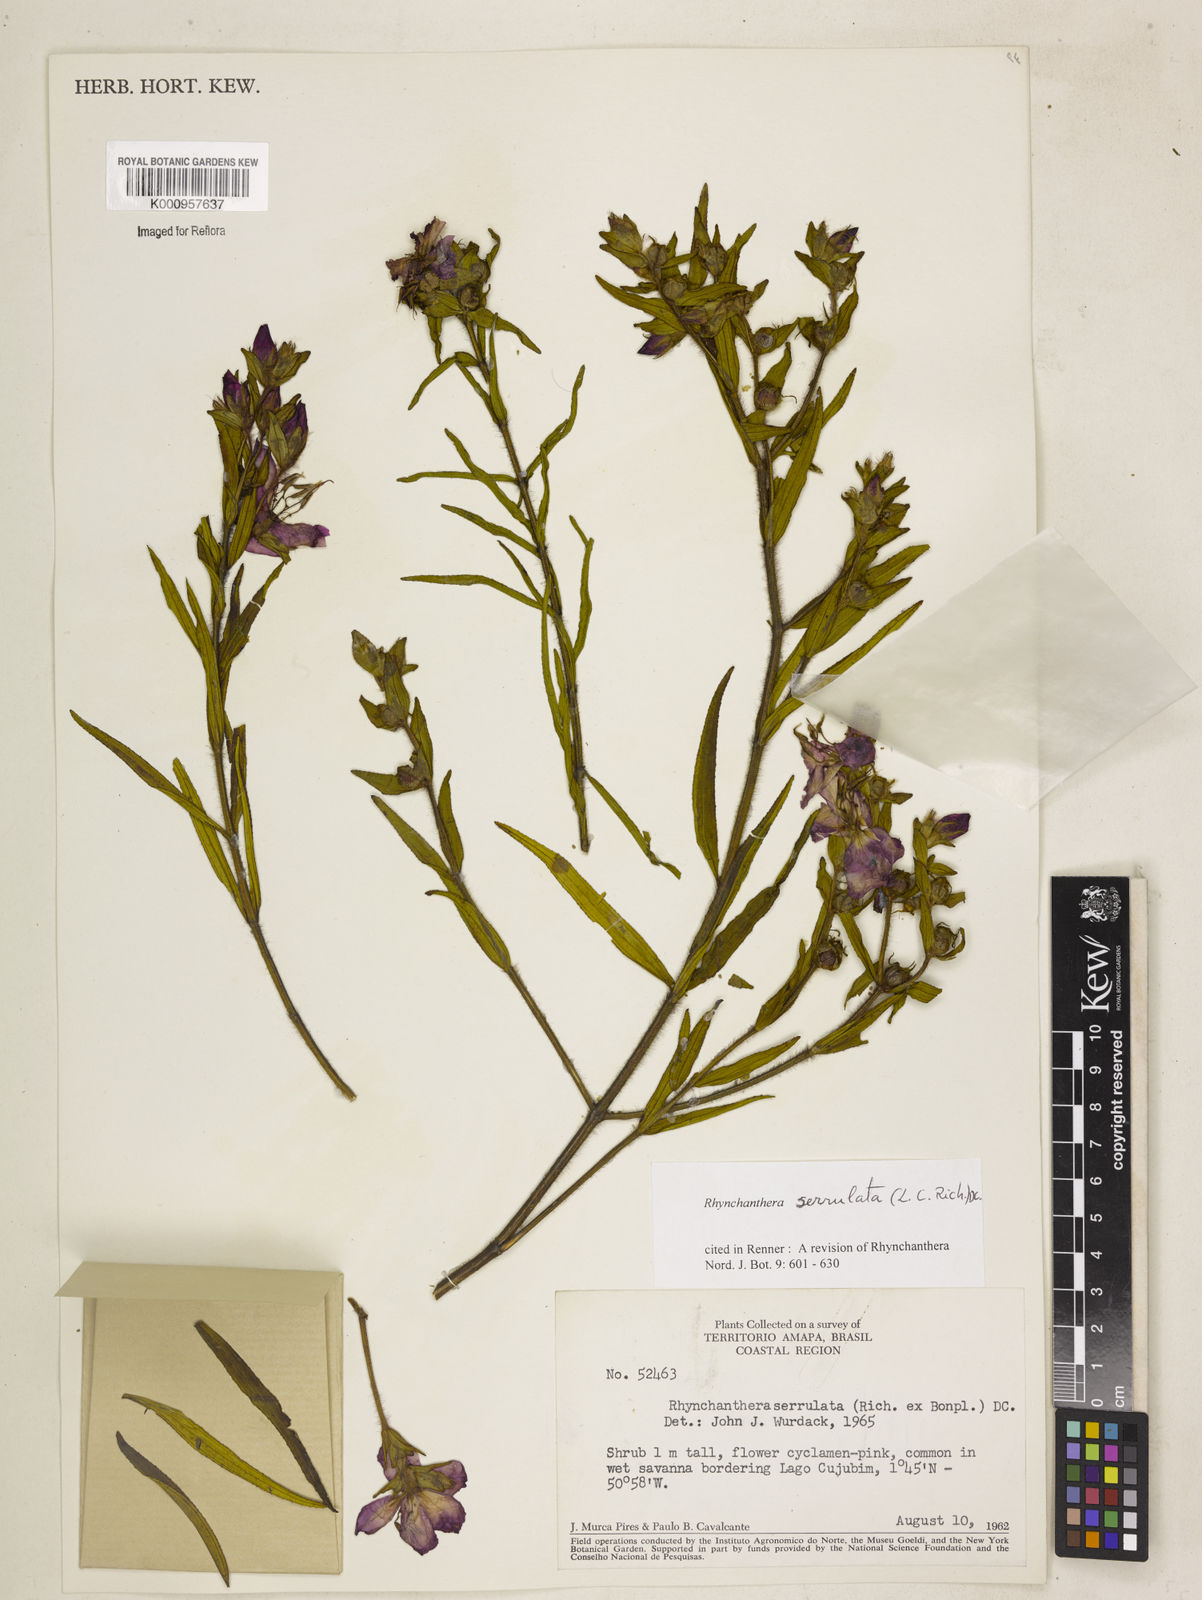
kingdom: Plantae
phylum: Tracheophyta
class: Magnoliopsida
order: Myrtales
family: Melastomataceae
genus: Rhynchanthera
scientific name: Rhynchanthera serrulata
